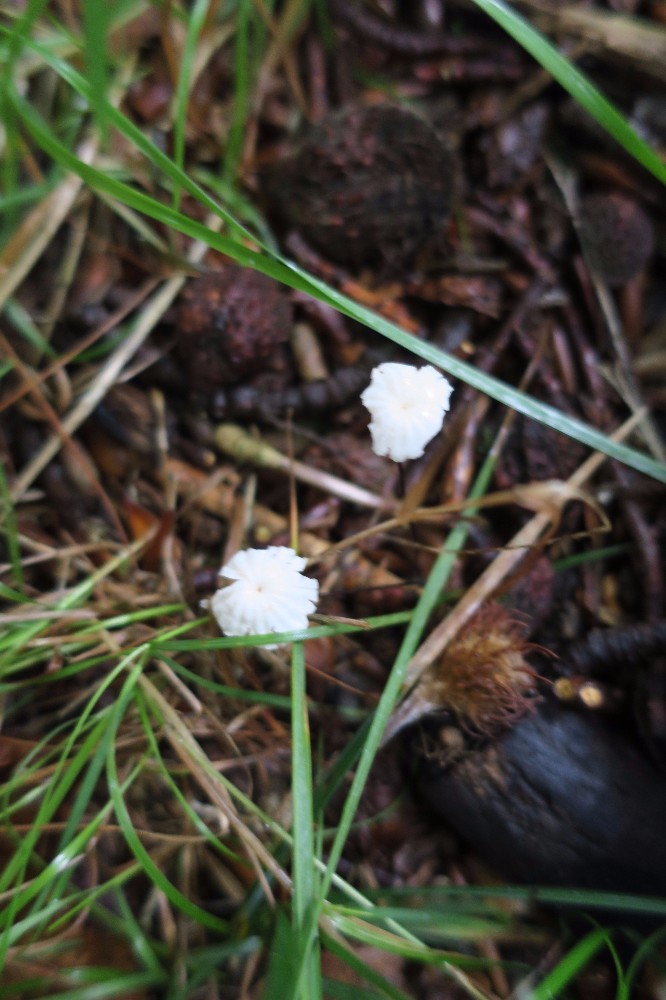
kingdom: Fungi
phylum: Basidiomycota
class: Agaricomycetes
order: Agaricales
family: Marasmiaceae
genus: Marasmius
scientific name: Marasmius rotula
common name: hjul-bruskhat
